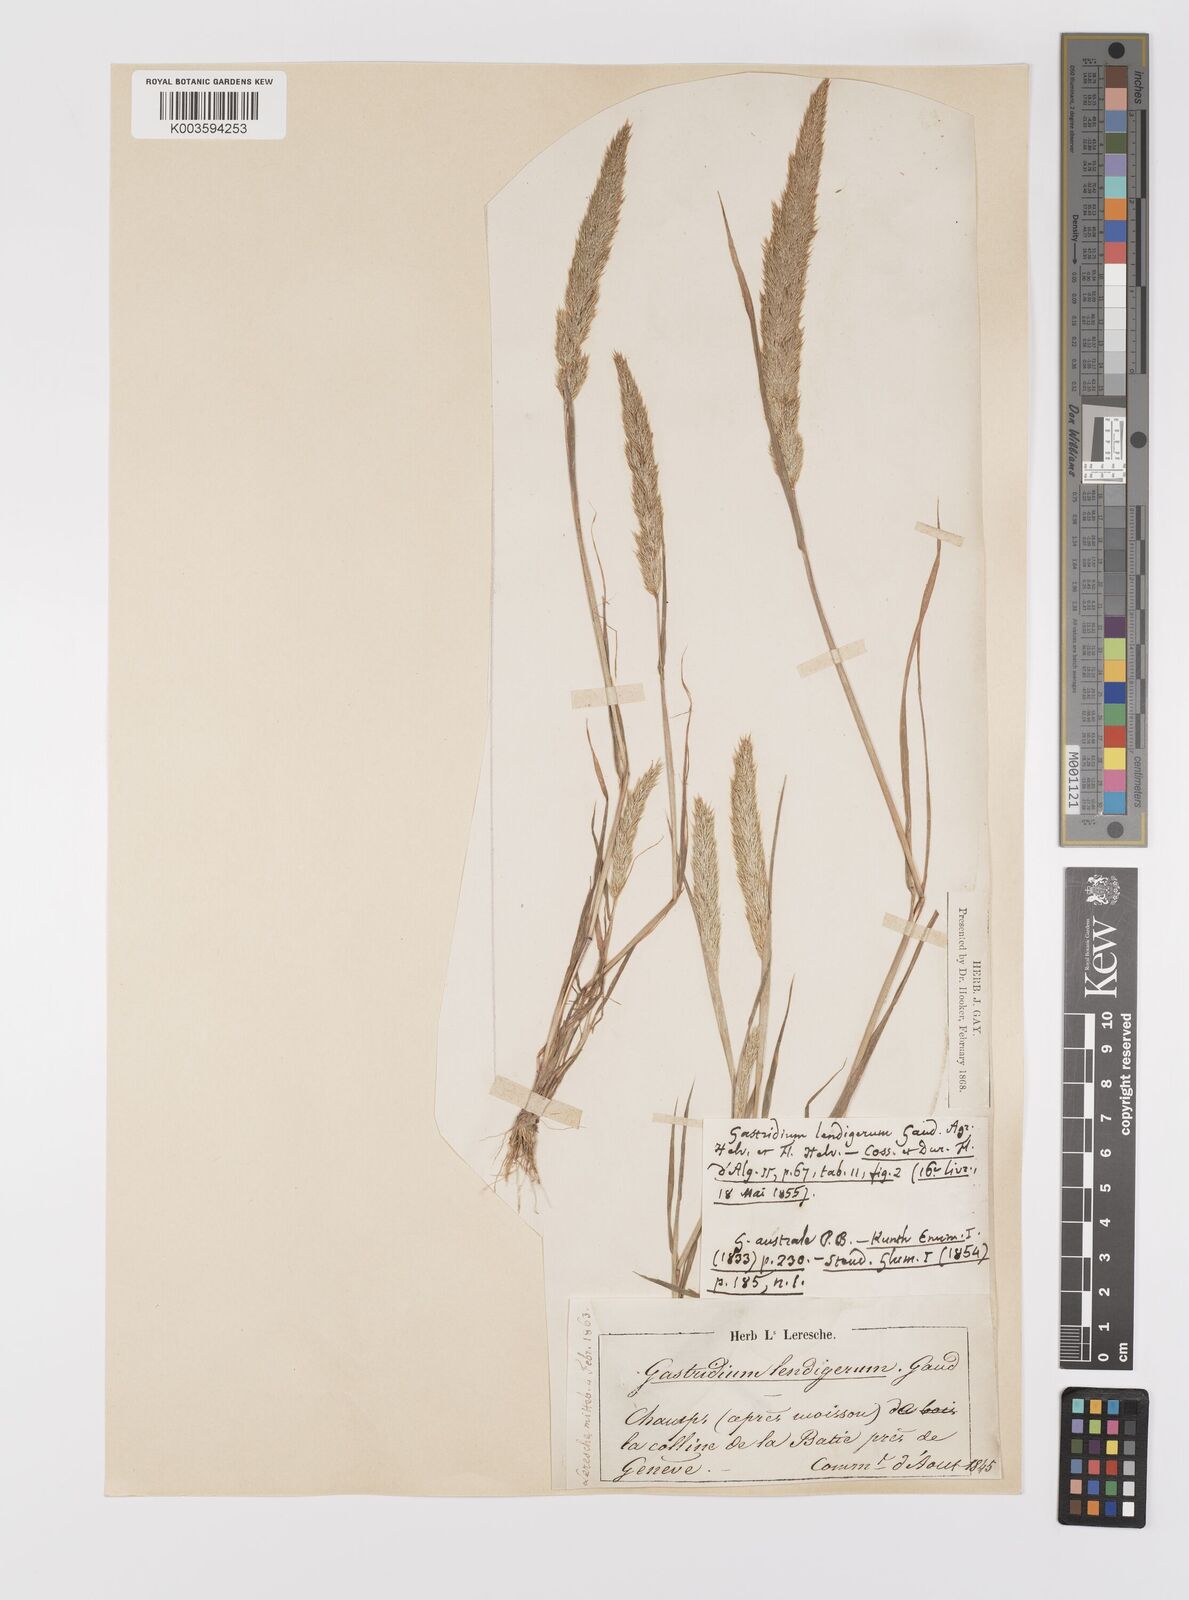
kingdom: Plantae
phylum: Tracheophyta
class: Liliopsida
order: Poales
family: Poaceae
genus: Gastridium
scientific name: Gastridium ventricosum
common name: Nit-grass
